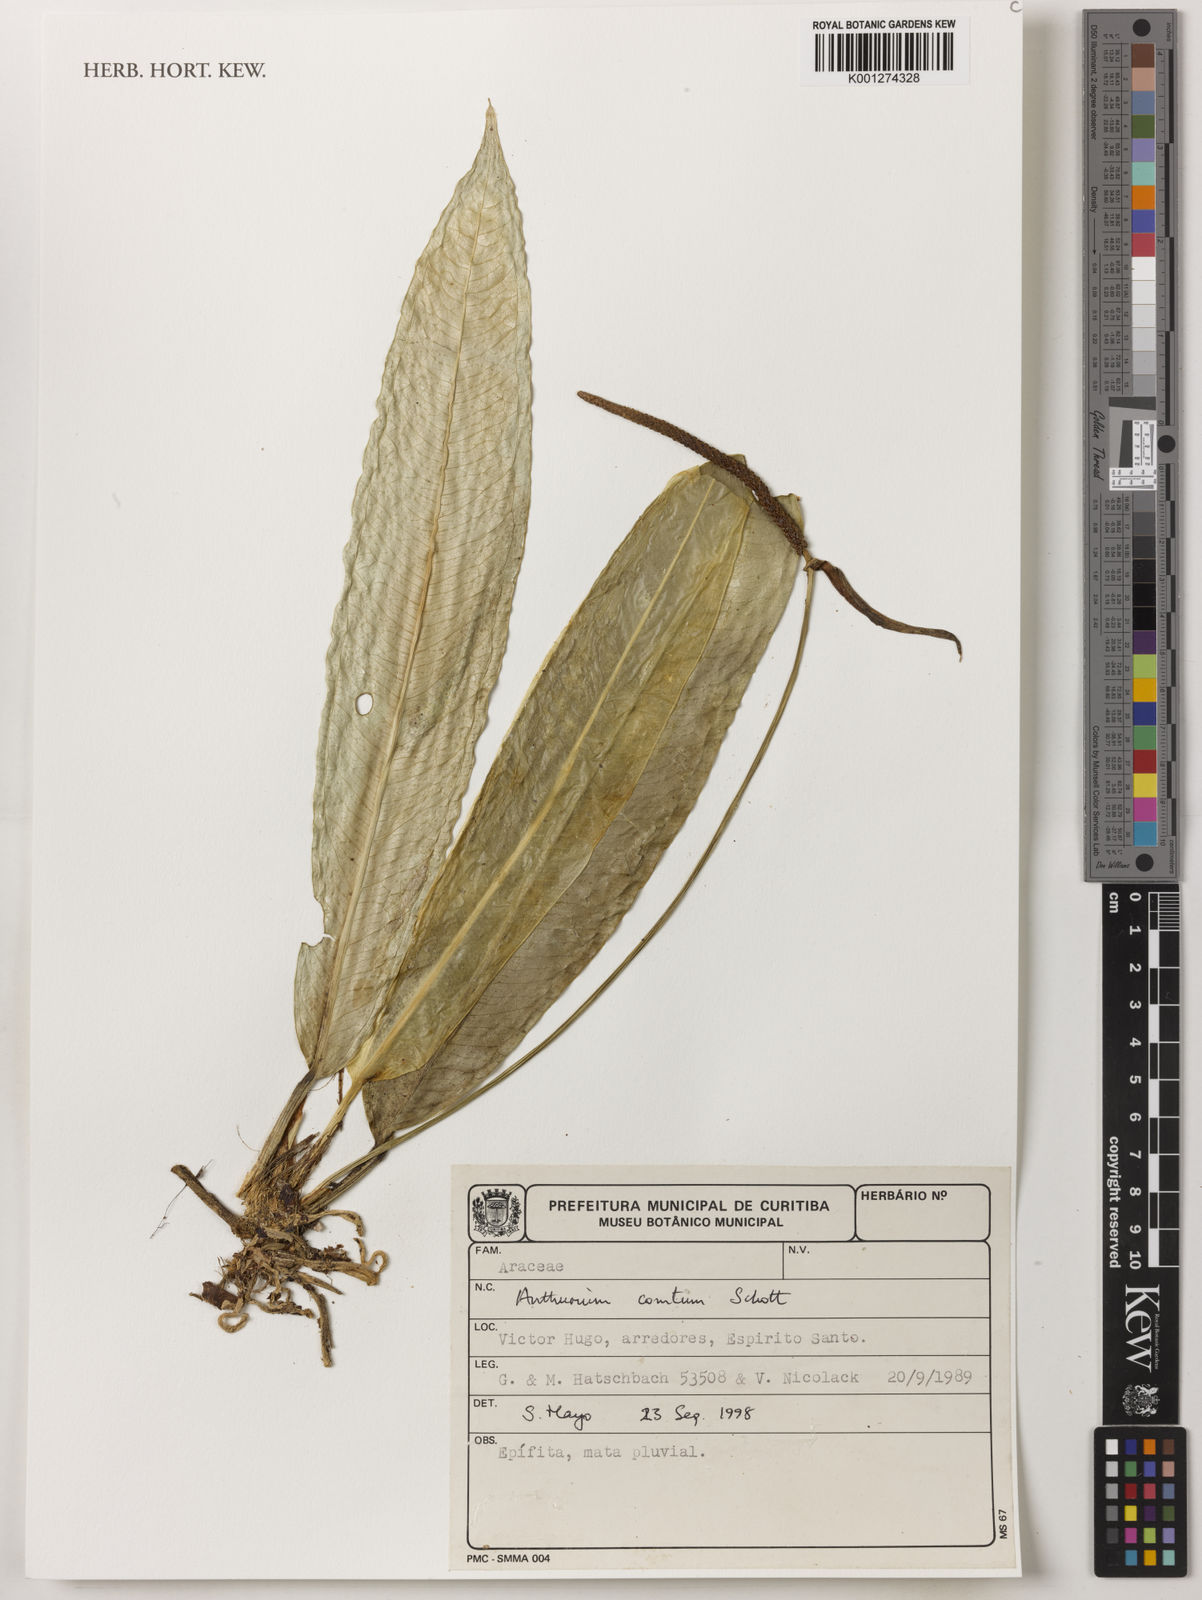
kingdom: Plantae
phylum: Tracheophyta
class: Liliopsida
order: Alismatales
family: Araceae
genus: Anthurium
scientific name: Anthurium comtum
